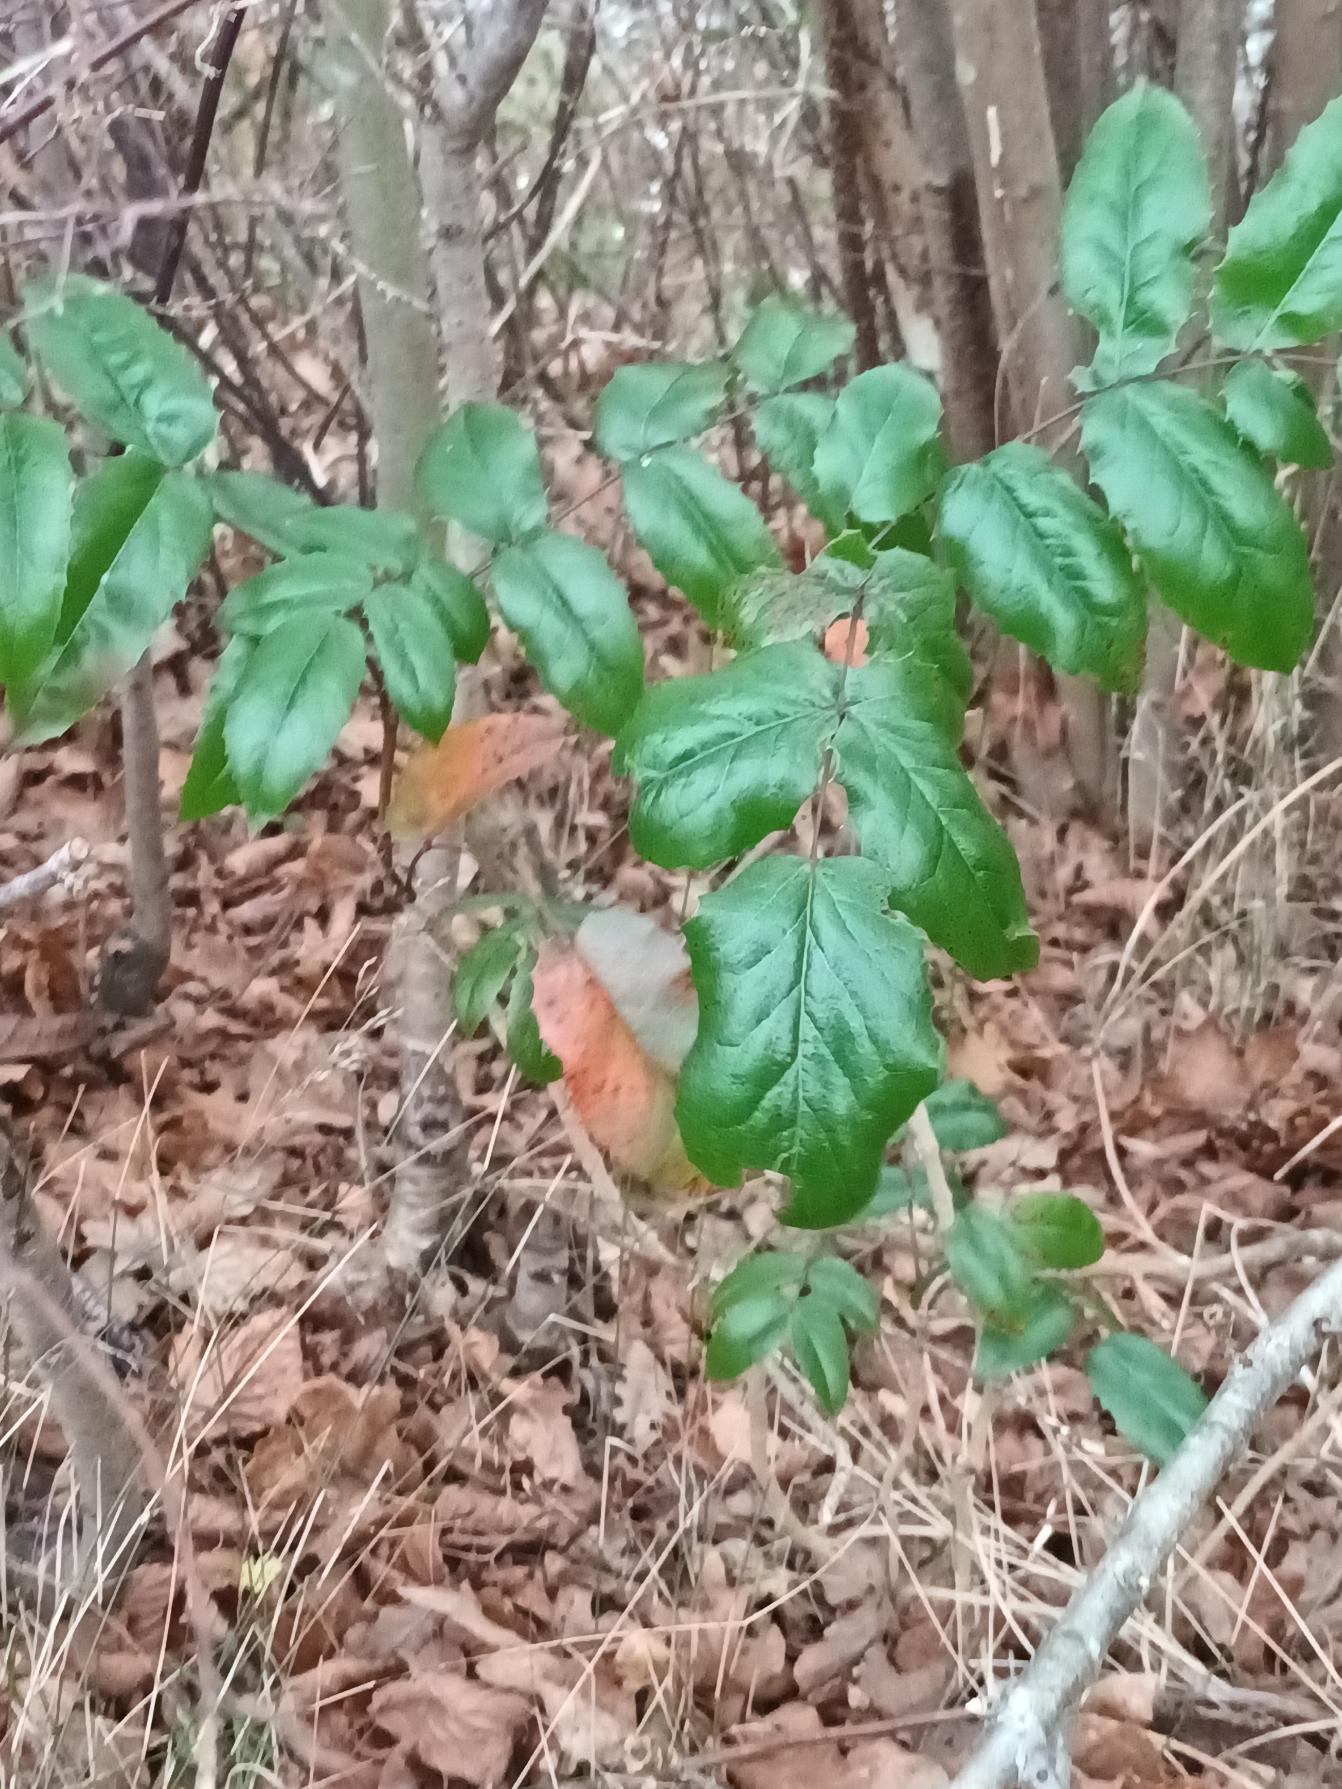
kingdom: Plantae
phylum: Tracheophyta
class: Magnoliopsida
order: Ranunculales
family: Berberidaceae
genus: Mahonia
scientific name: Mahonia aquifolium
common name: Almindelig mahonie
